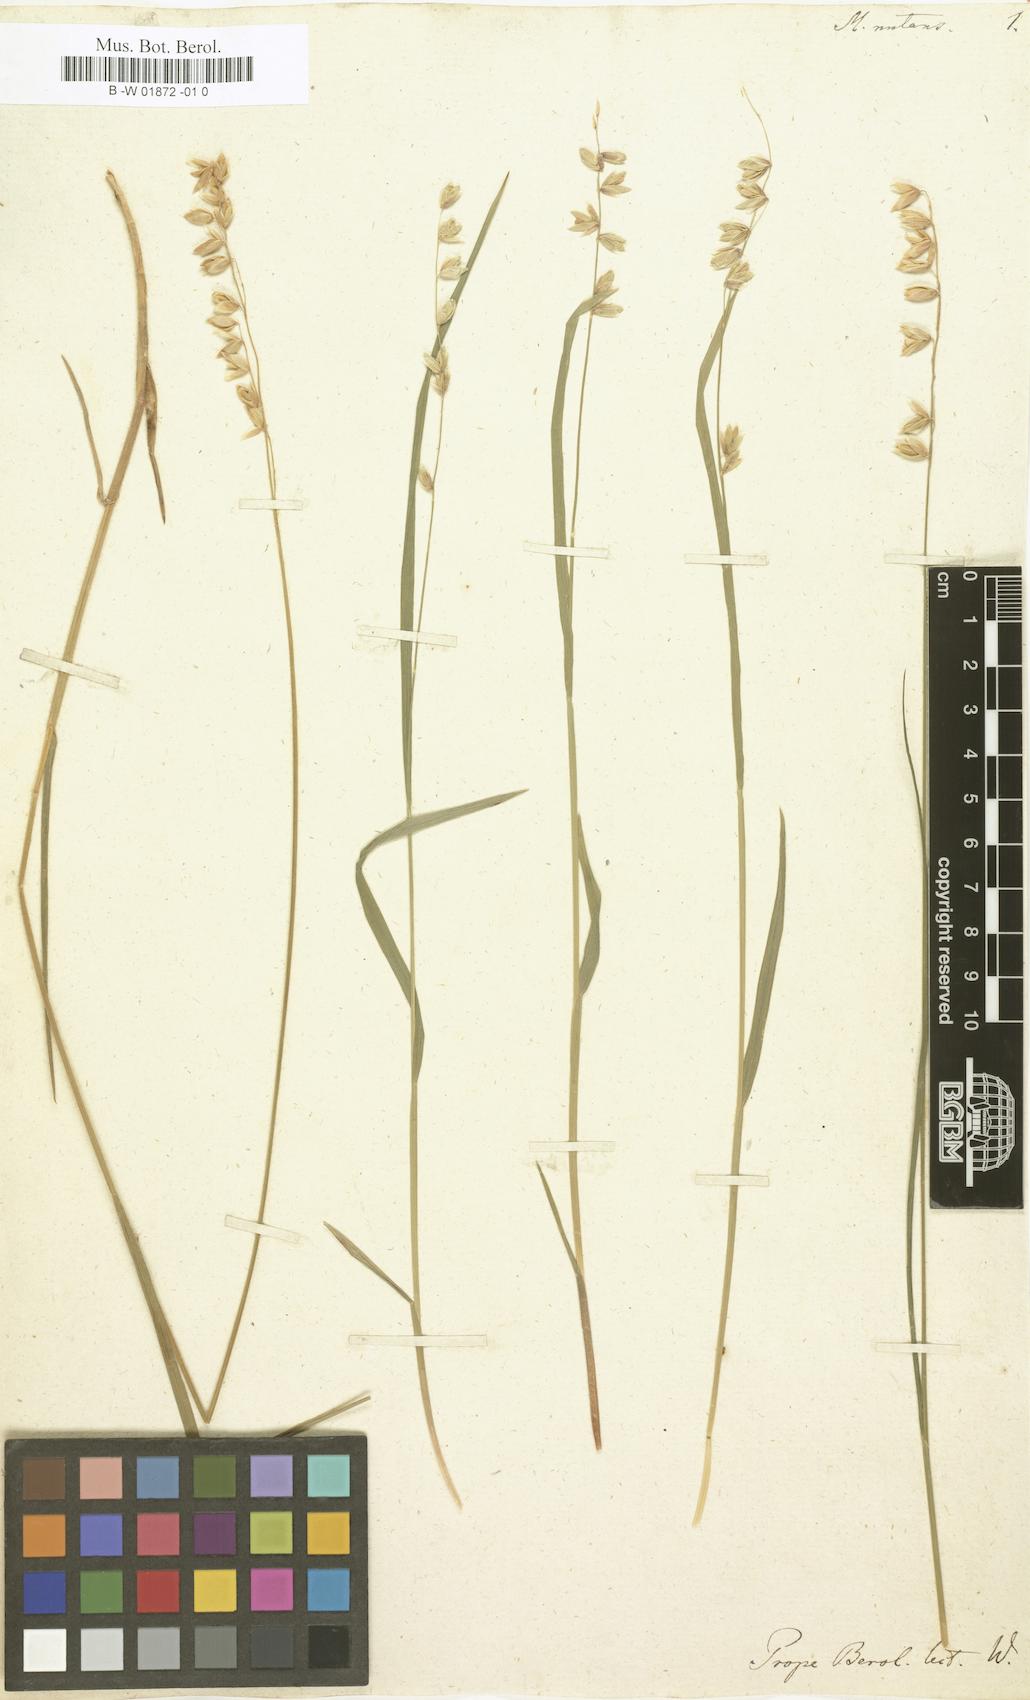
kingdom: Plantae
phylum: Tracheophyta
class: Liliopsida
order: Poales
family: Poaceae
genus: Melica
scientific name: Melica nutans
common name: Mountain melick
